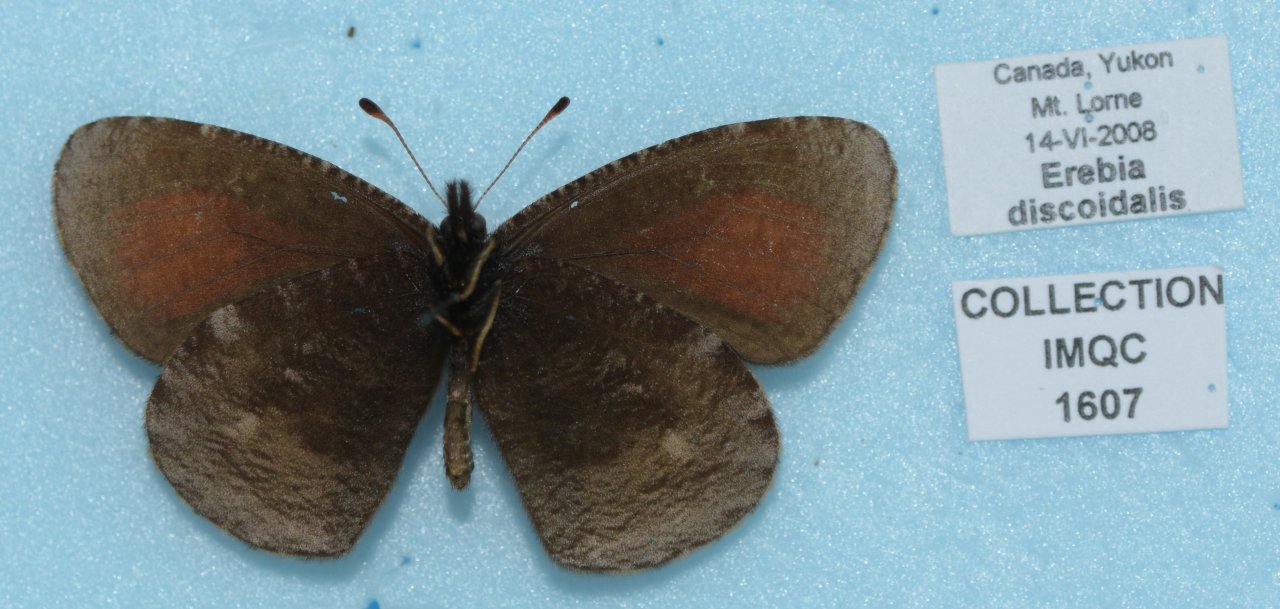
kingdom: Animalia
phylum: Arthropoda
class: Insecta
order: Lepidoptera
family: Nymphalidae
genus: Erebia
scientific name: Erebia discoidalis
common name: Red-disked Alpine
